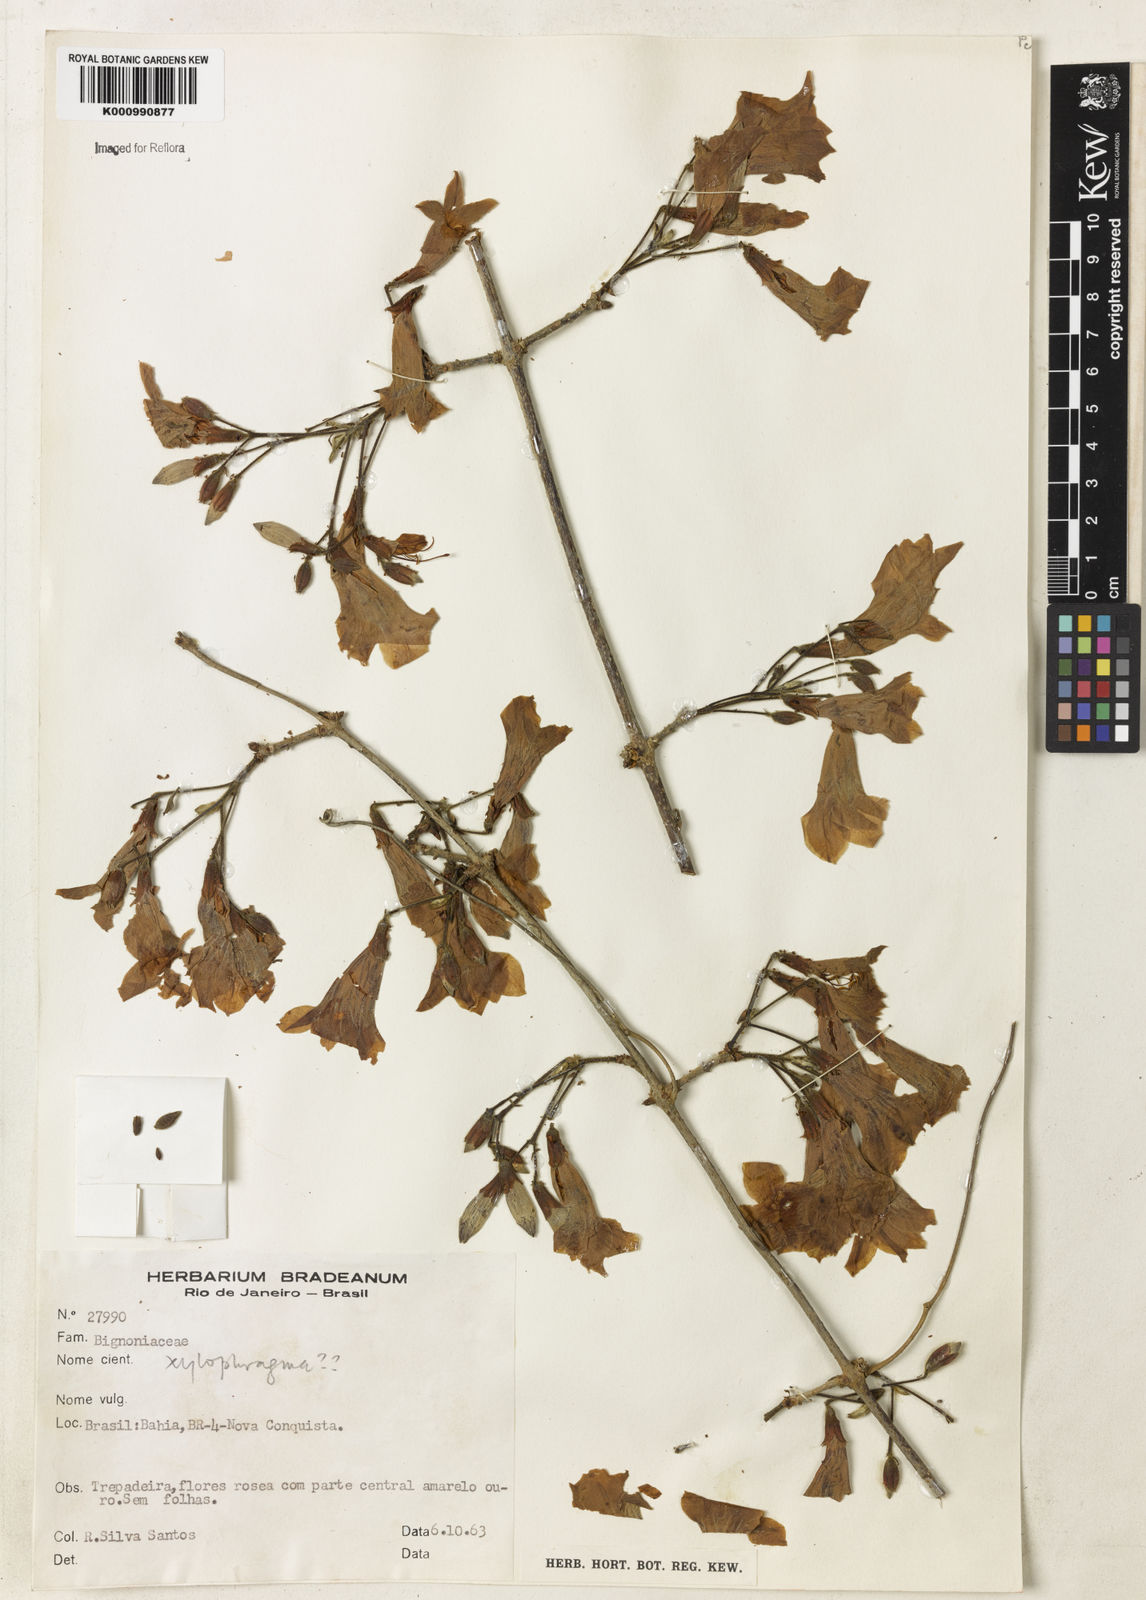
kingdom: Plantae
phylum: Tracheophyta
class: Magnoliopsida
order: Lamiales
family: Bignoniaceae
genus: Xylophragma
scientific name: Xylophragma pratense
